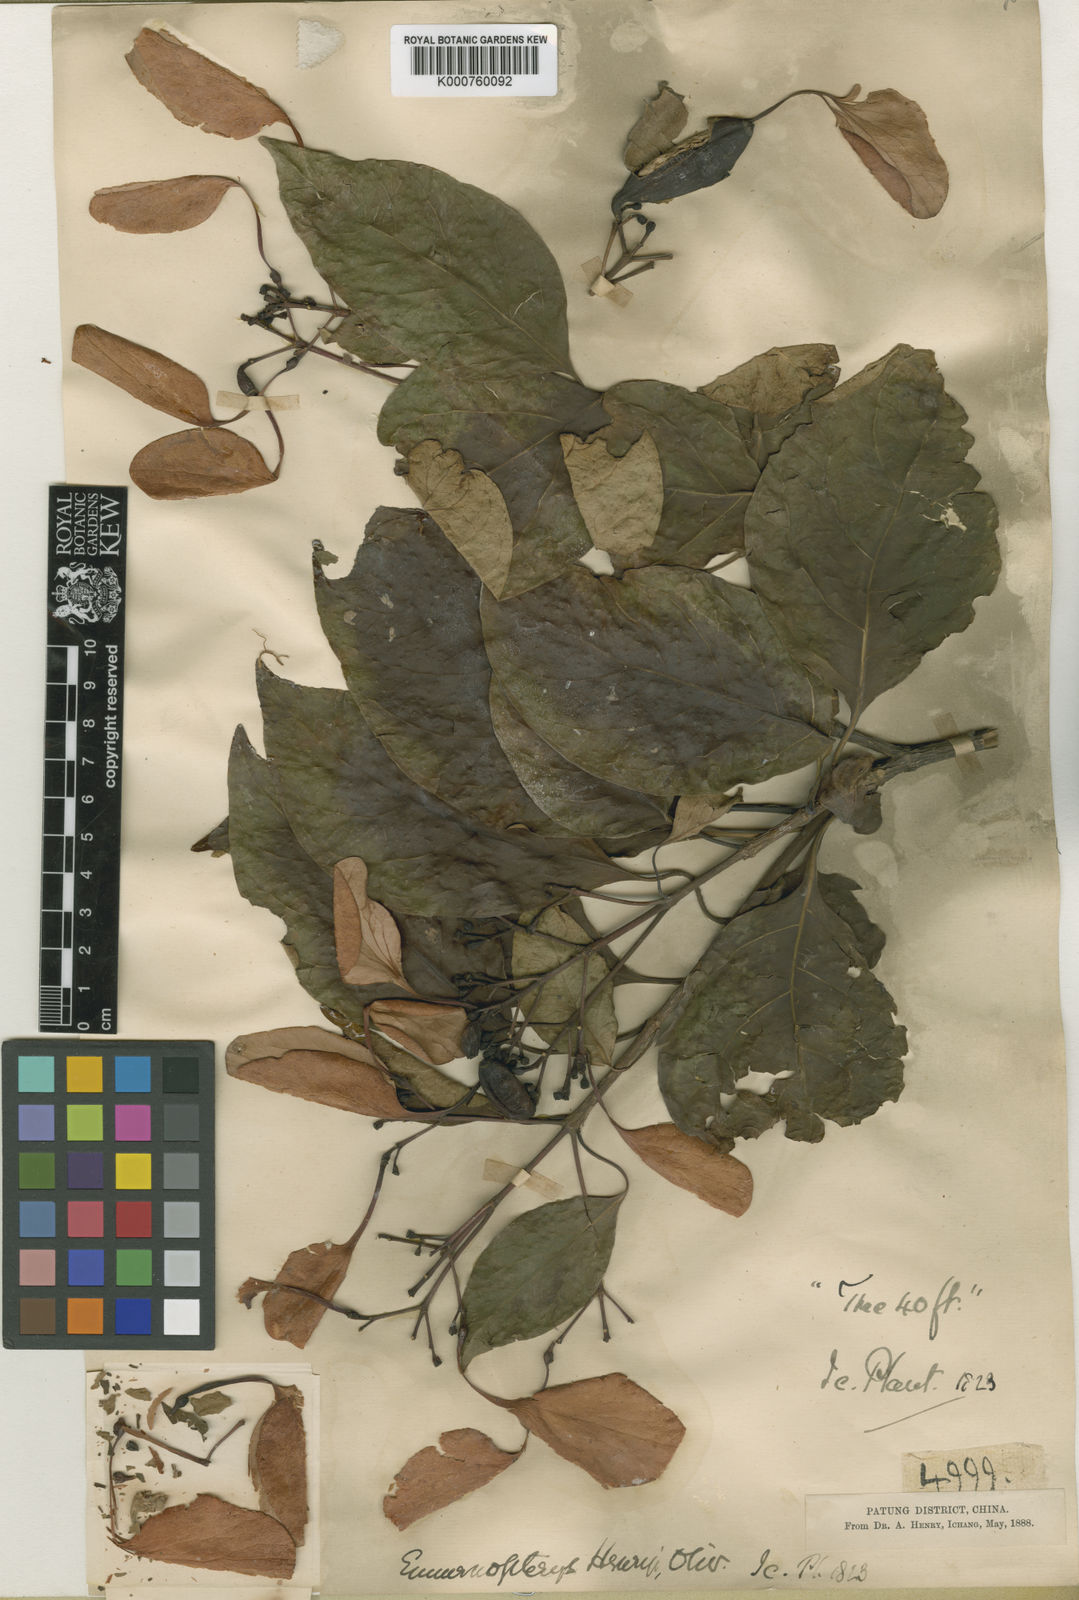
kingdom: Plantae
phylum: Tracheophyta
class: Magnoliopsida
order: Gentianales
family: Rubiaceae
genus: Emmenopterys
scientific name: Emmenopterys henryi
